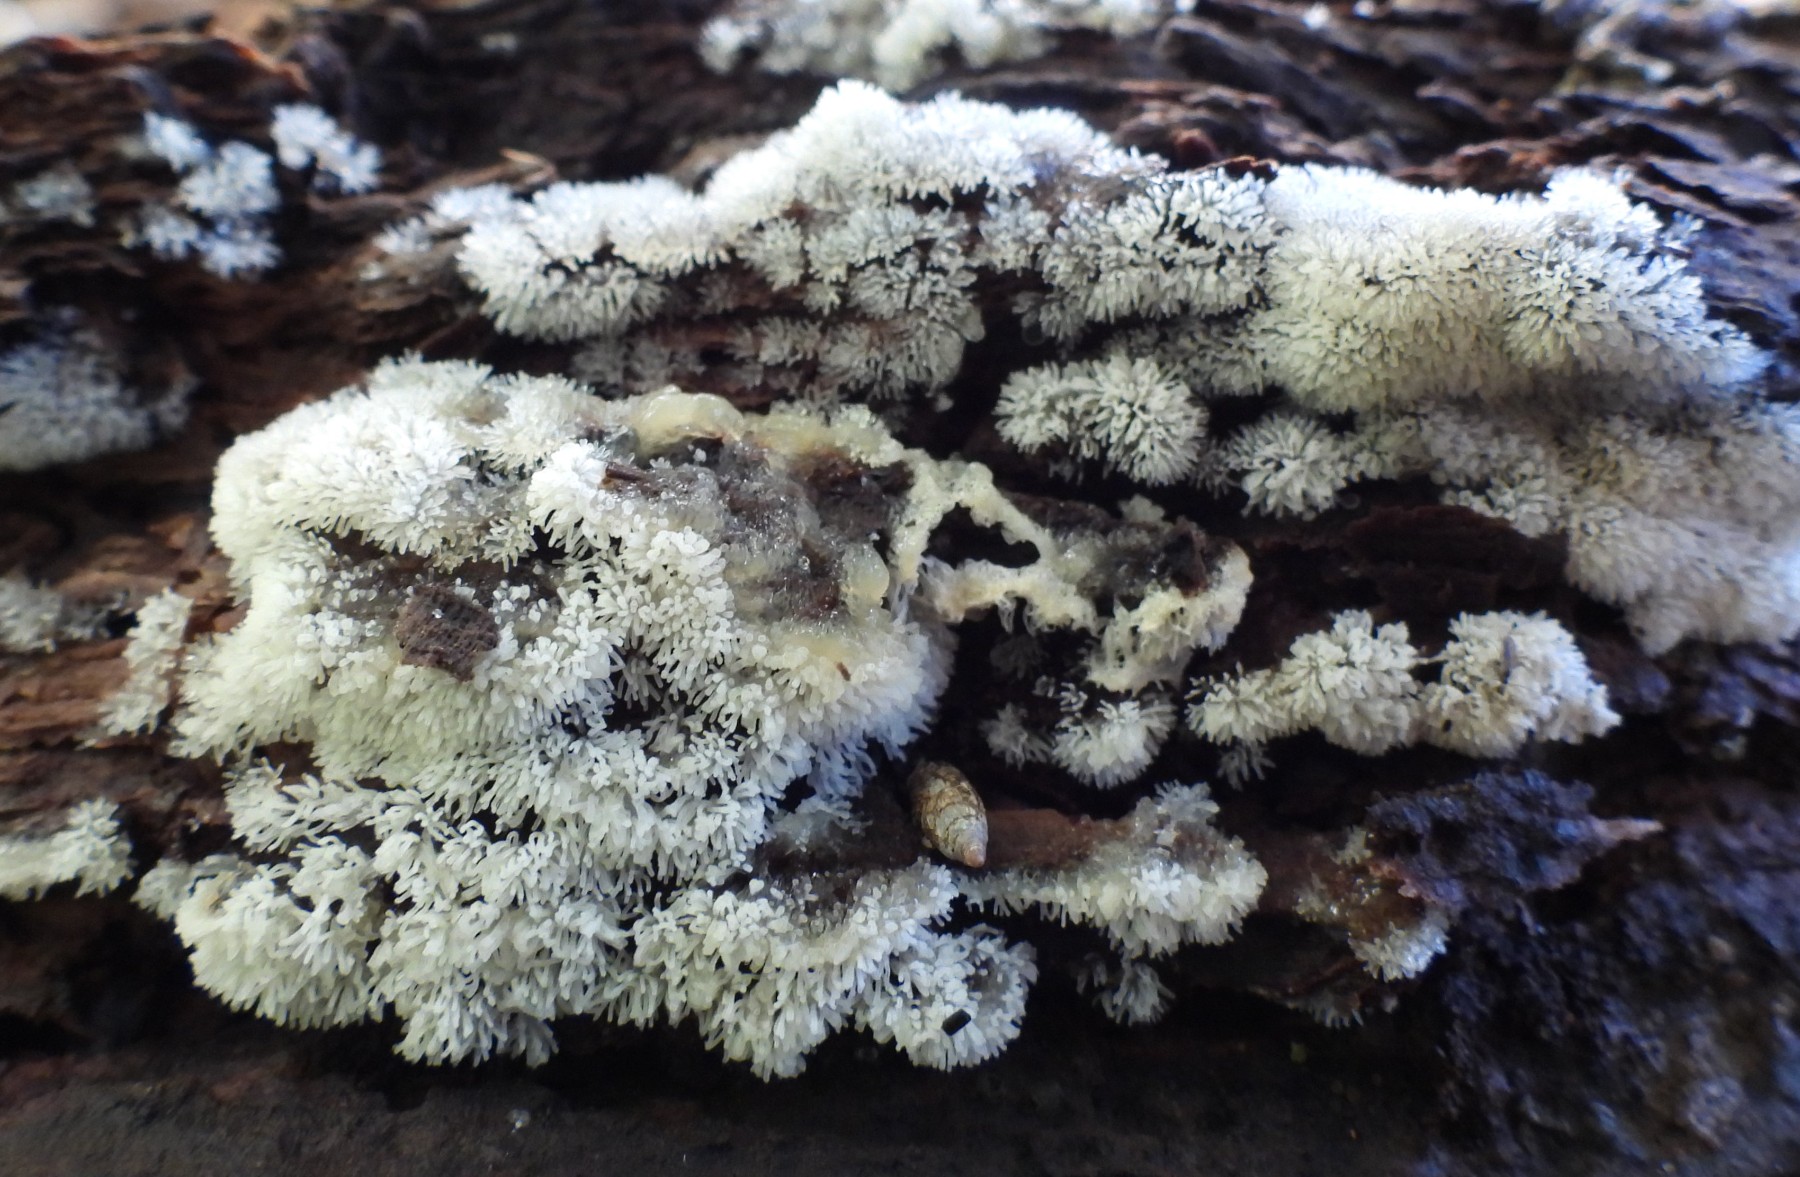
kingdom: Protozoa
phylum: Mycetozoa
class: Protosteliomycetes
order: Ceratiomyxales
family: Ceratiomyxaceae
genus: Ceratiomyxa
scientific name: Ceratiomyxa fruticulosa
